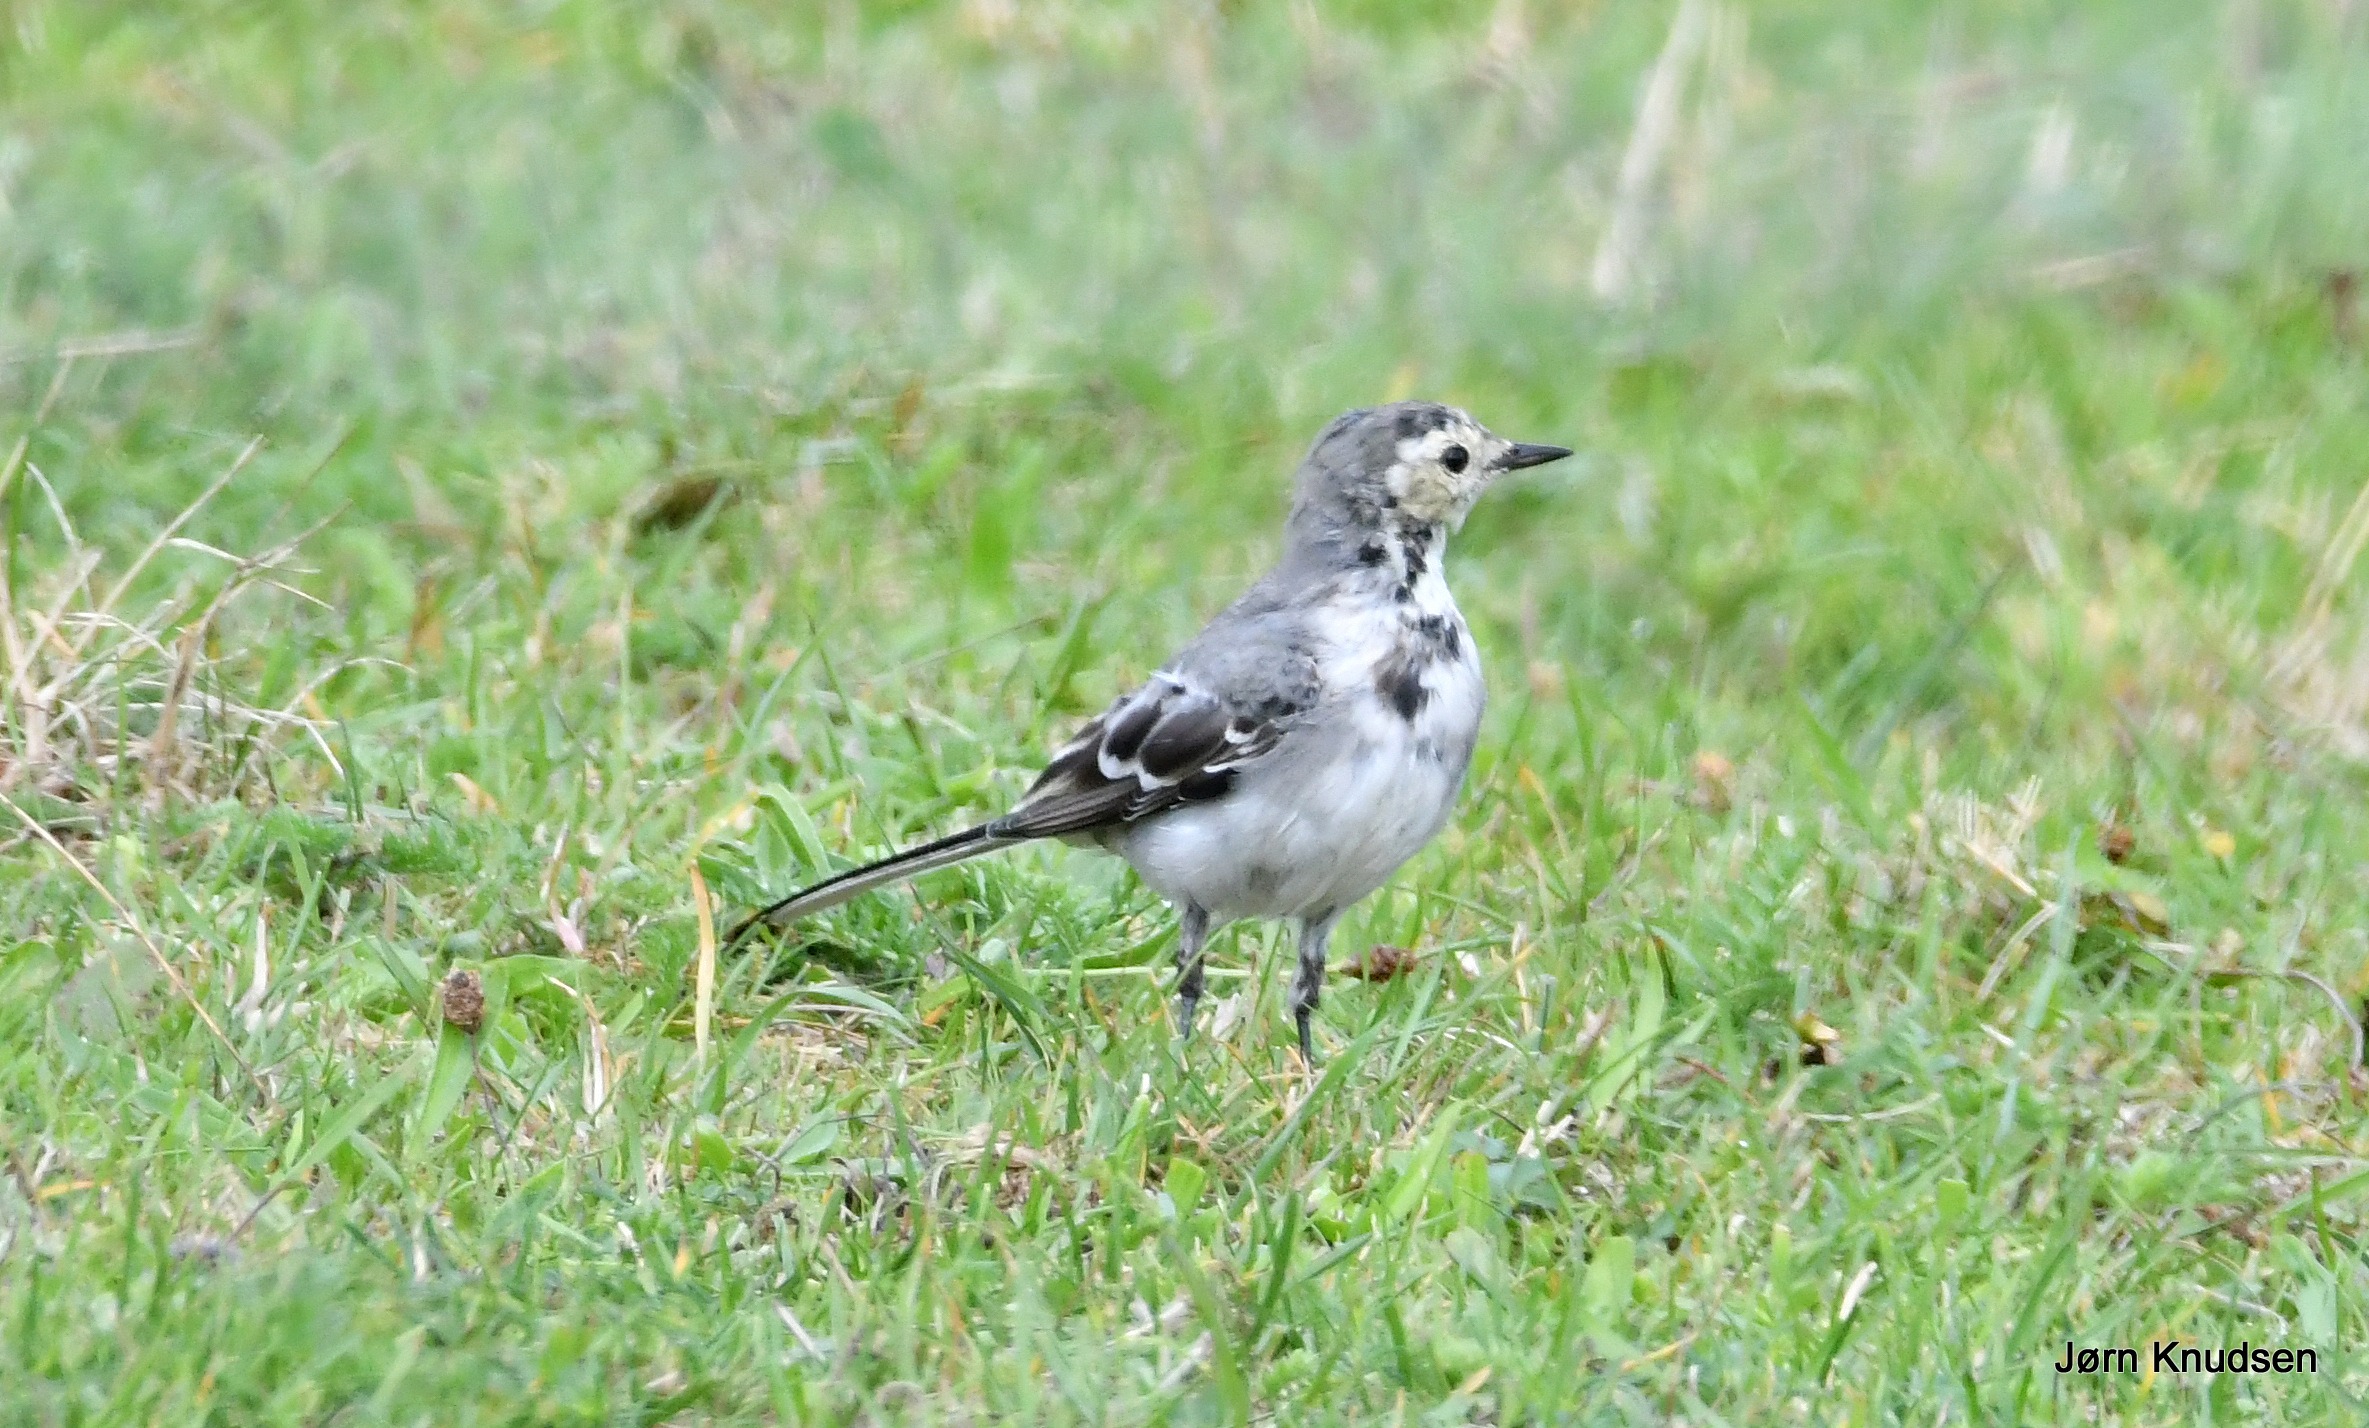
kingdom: Animalia
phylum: Chordata
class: Aves
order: Passeriformes
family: Motacillidae
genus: Motacilla
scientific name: Motacilla alba
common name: Hvid vipstjert
